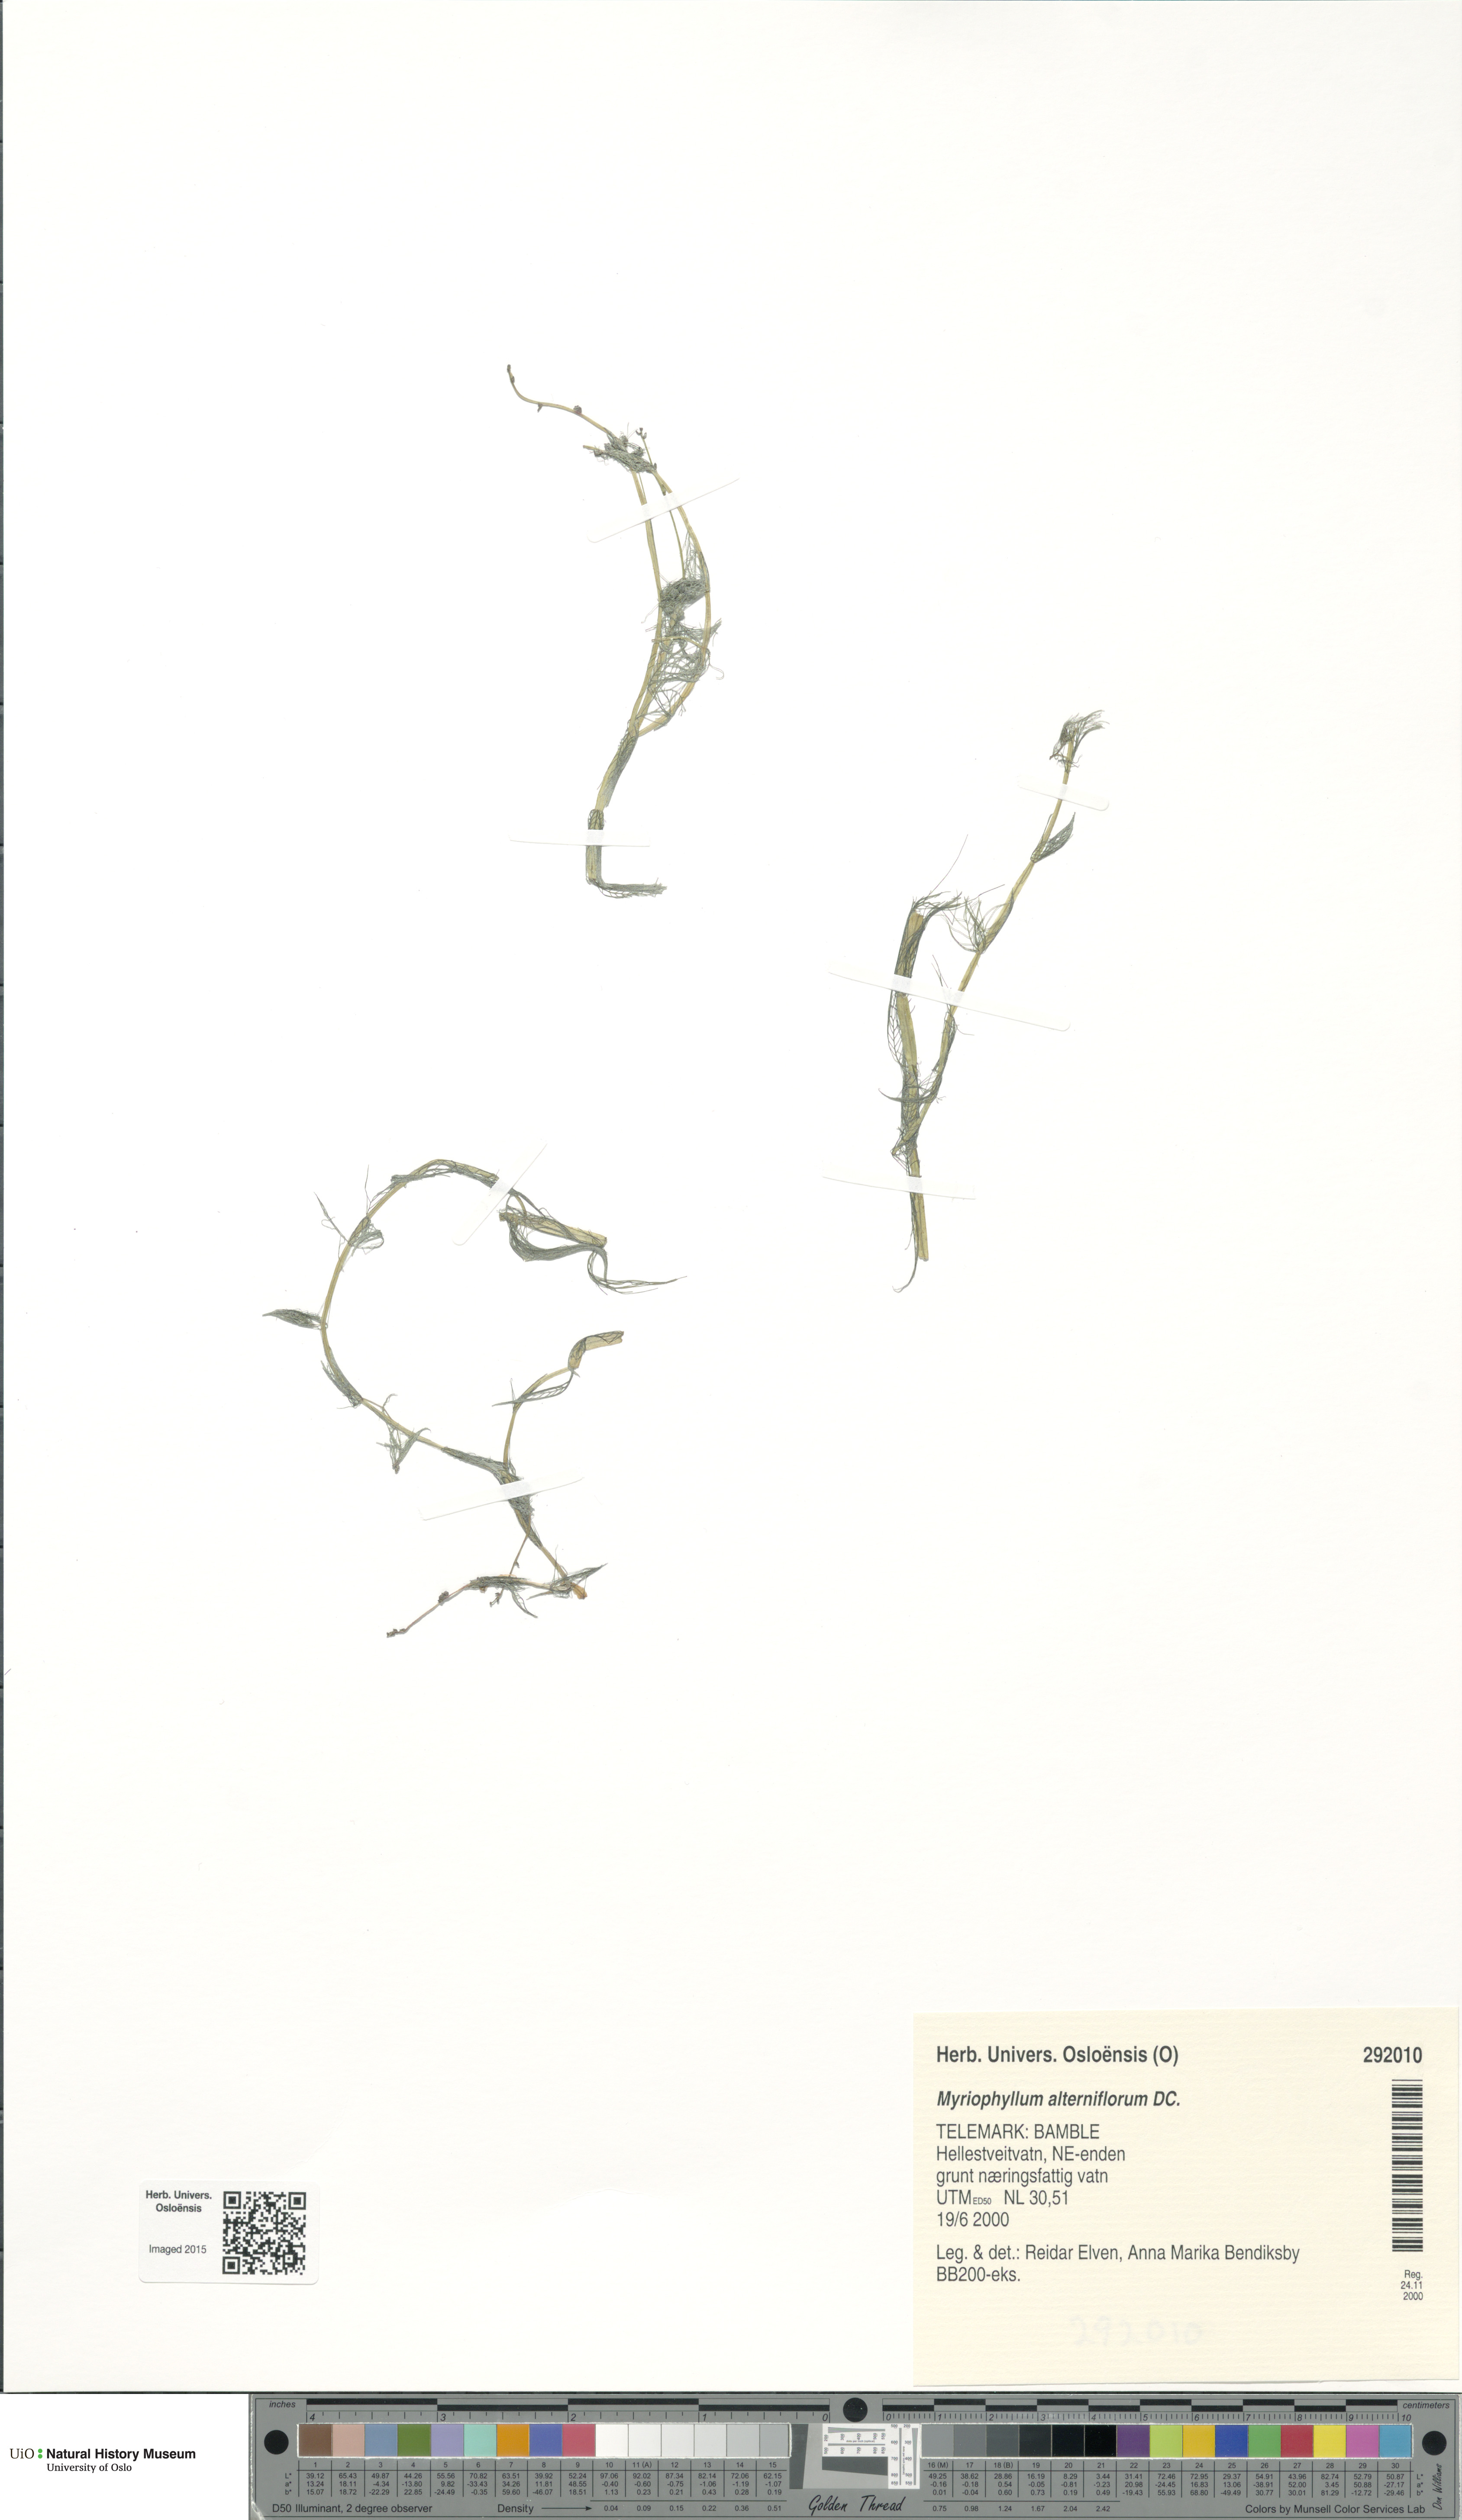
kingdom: Plantae
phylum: Tracheophyta
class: Magnoliopsida
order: Saxifragales
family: Haloragaceae
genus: Myriophyllum
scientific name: Myriophyllum alterniflorum
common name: Alternate water-milfoil
